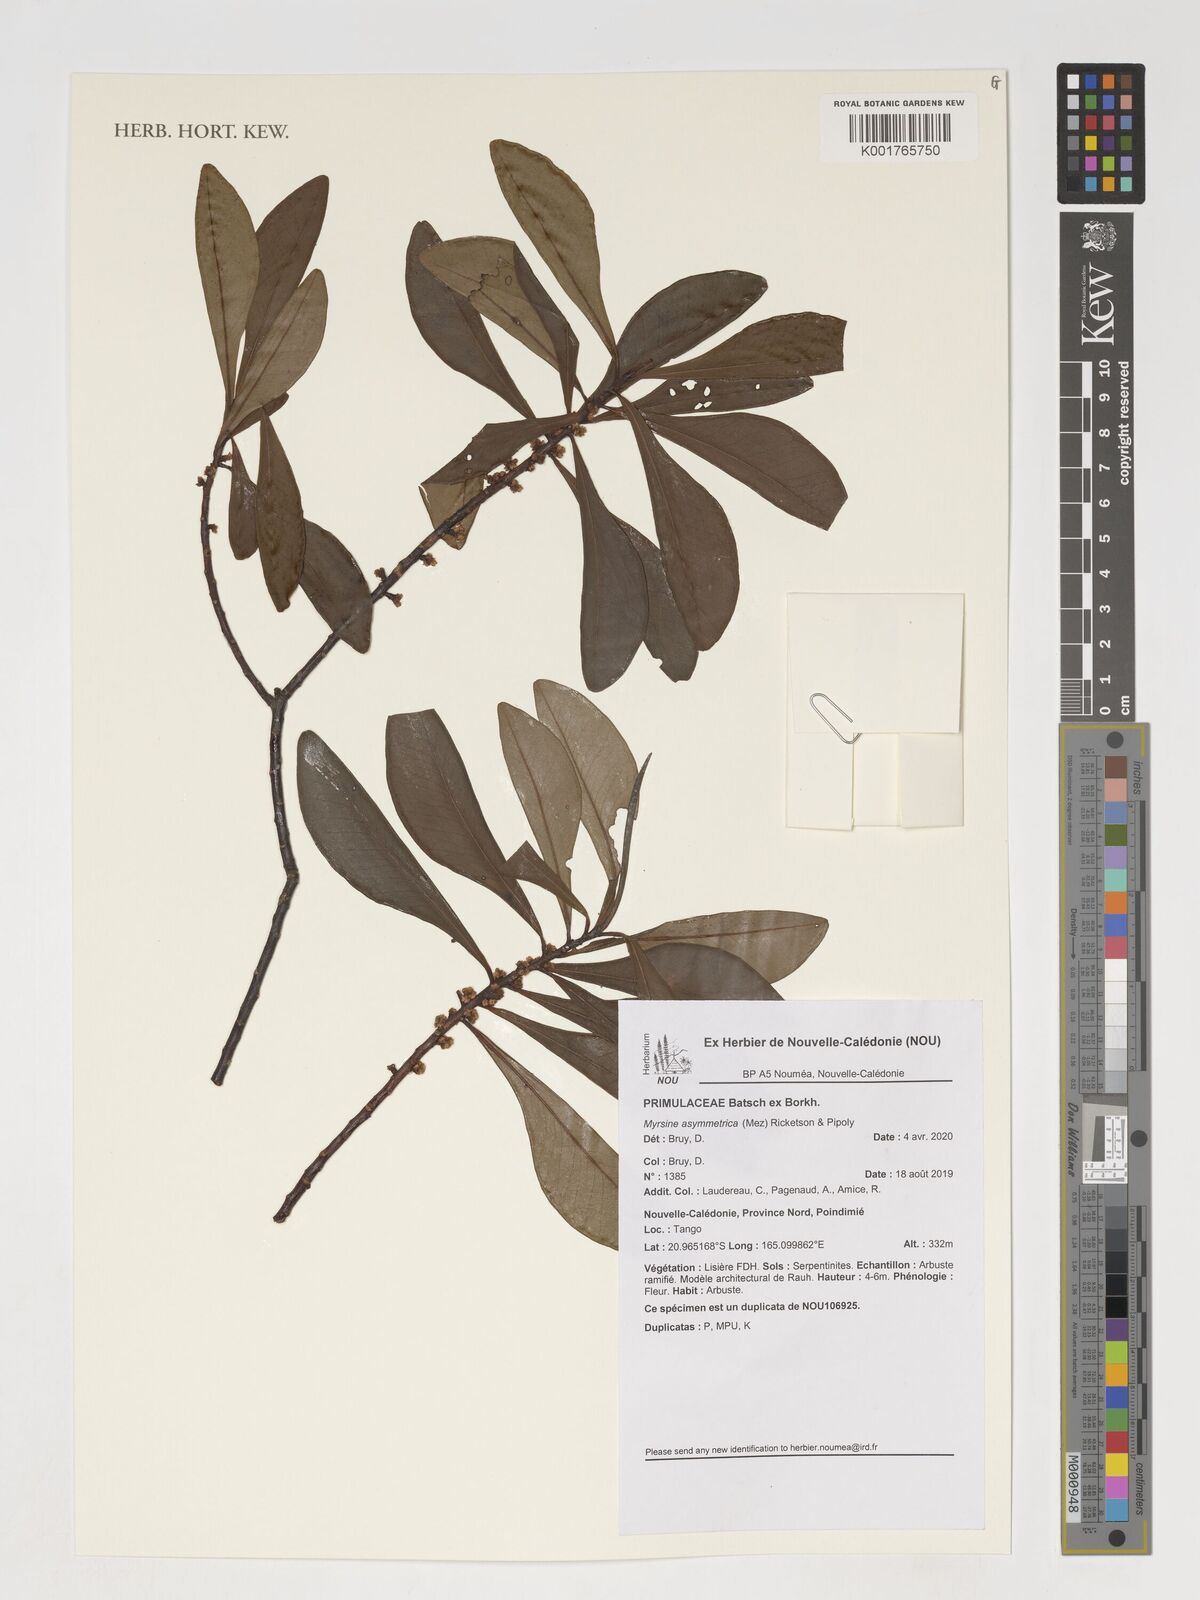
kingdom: Plantae
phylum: Tracheophyta
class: Magnoliopsida
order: Ericales
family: Primulaceae
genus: Myrsine
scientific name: Myrsine asymmetrica
